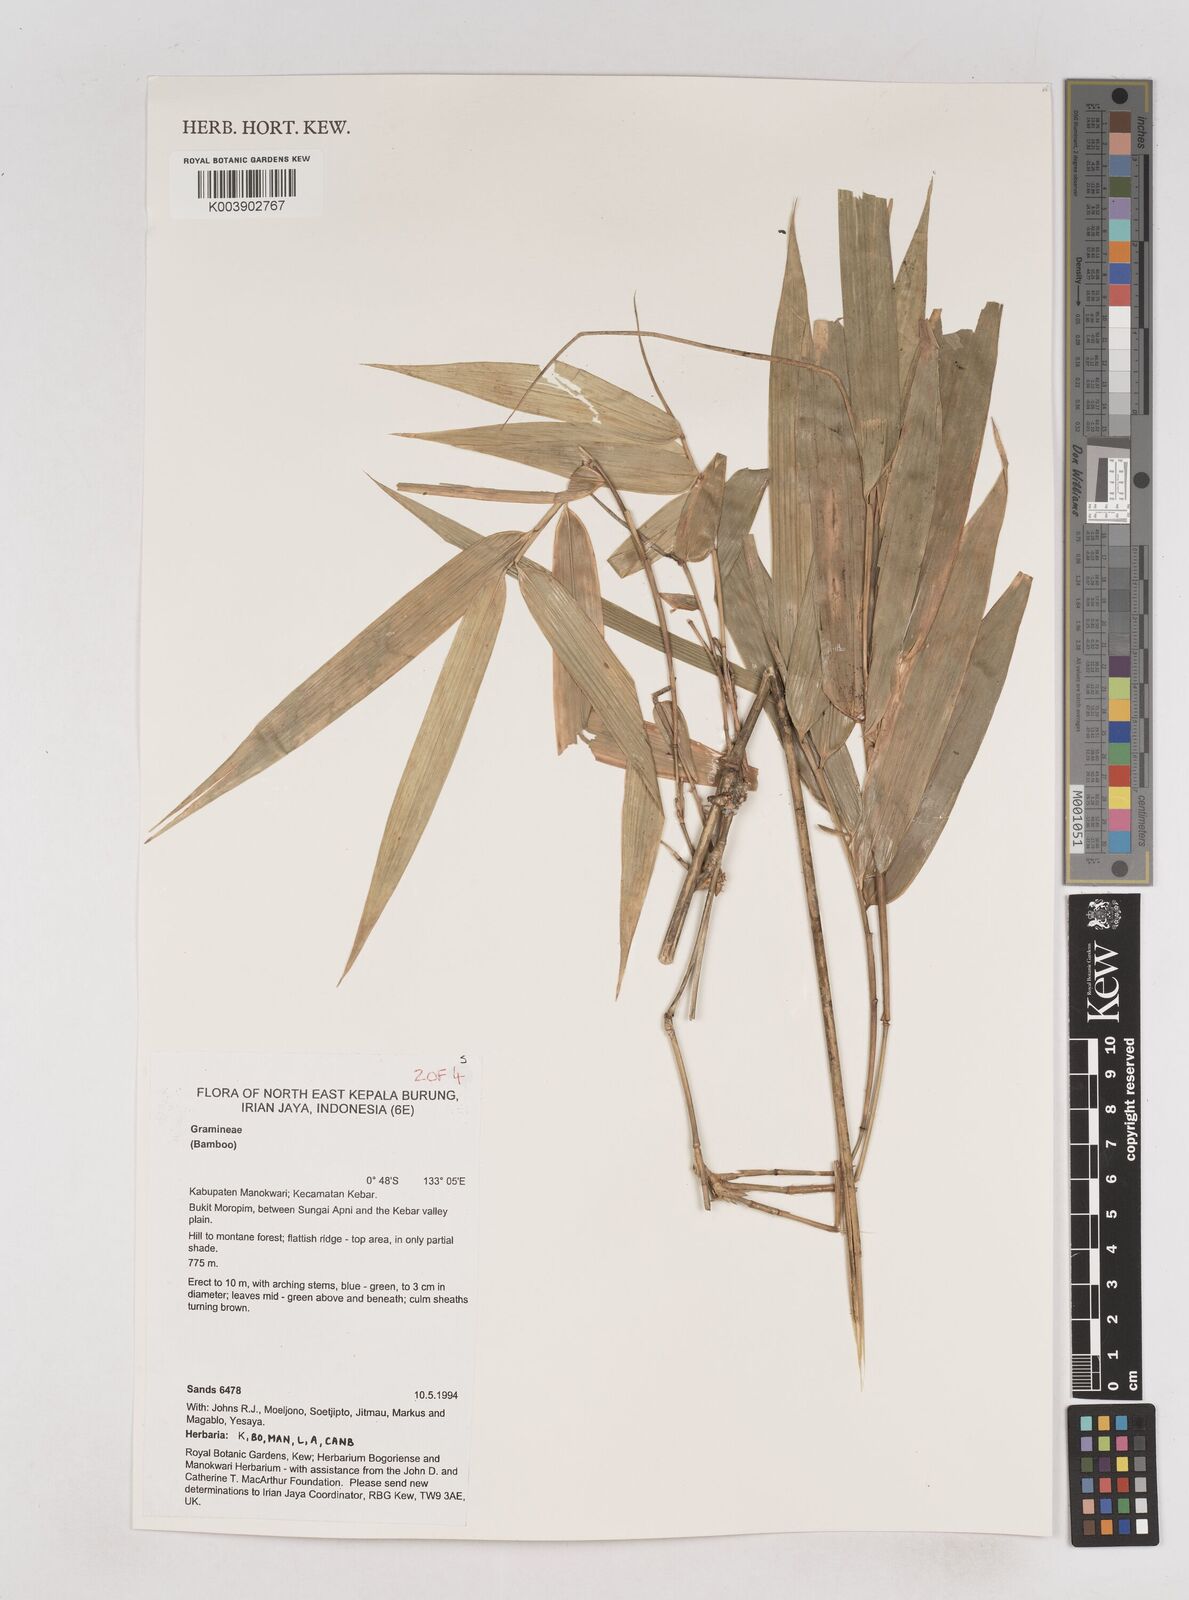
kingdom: Plantae
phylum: Tracheophyta
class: Liliopsida
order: Poales
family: Poaceae
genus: Schizostachyum
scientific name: Schizostachyum
